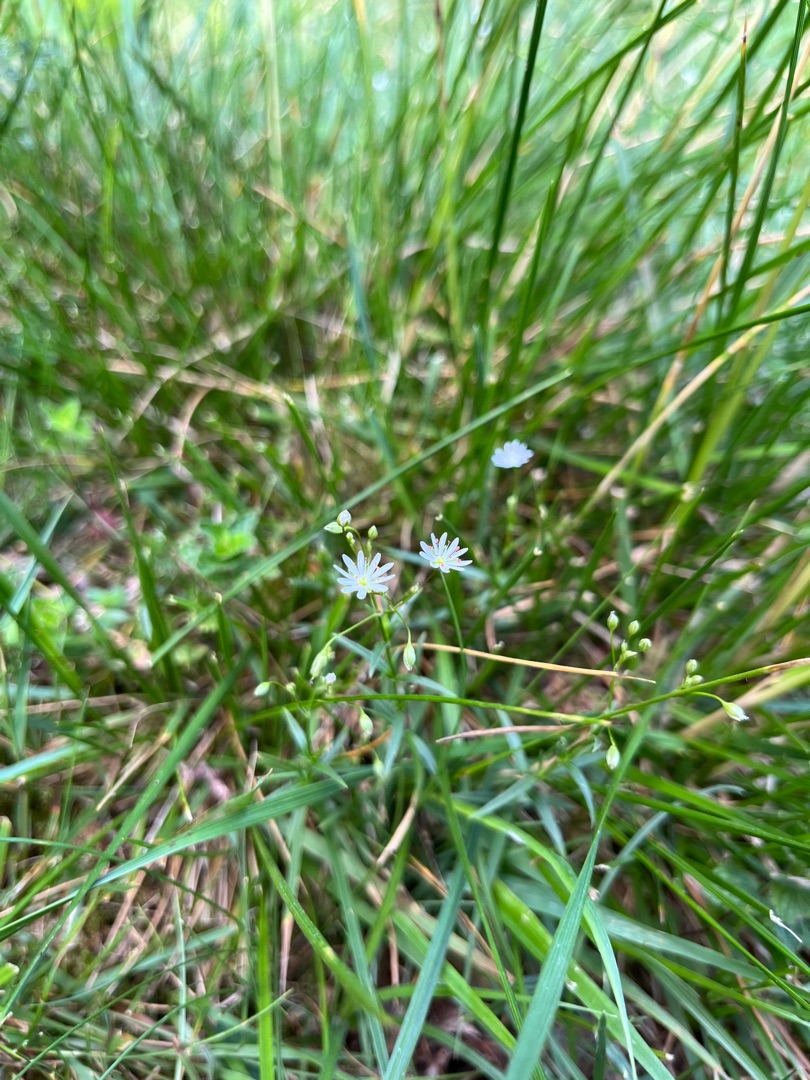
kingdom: Plantae
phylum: Tracheophyta
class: Magnoliopsida
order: Caryophyllales
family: Caryophyllaceae
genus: Stellaria
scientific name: Stellaria graminea
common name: Græsbladet fladstjerne
